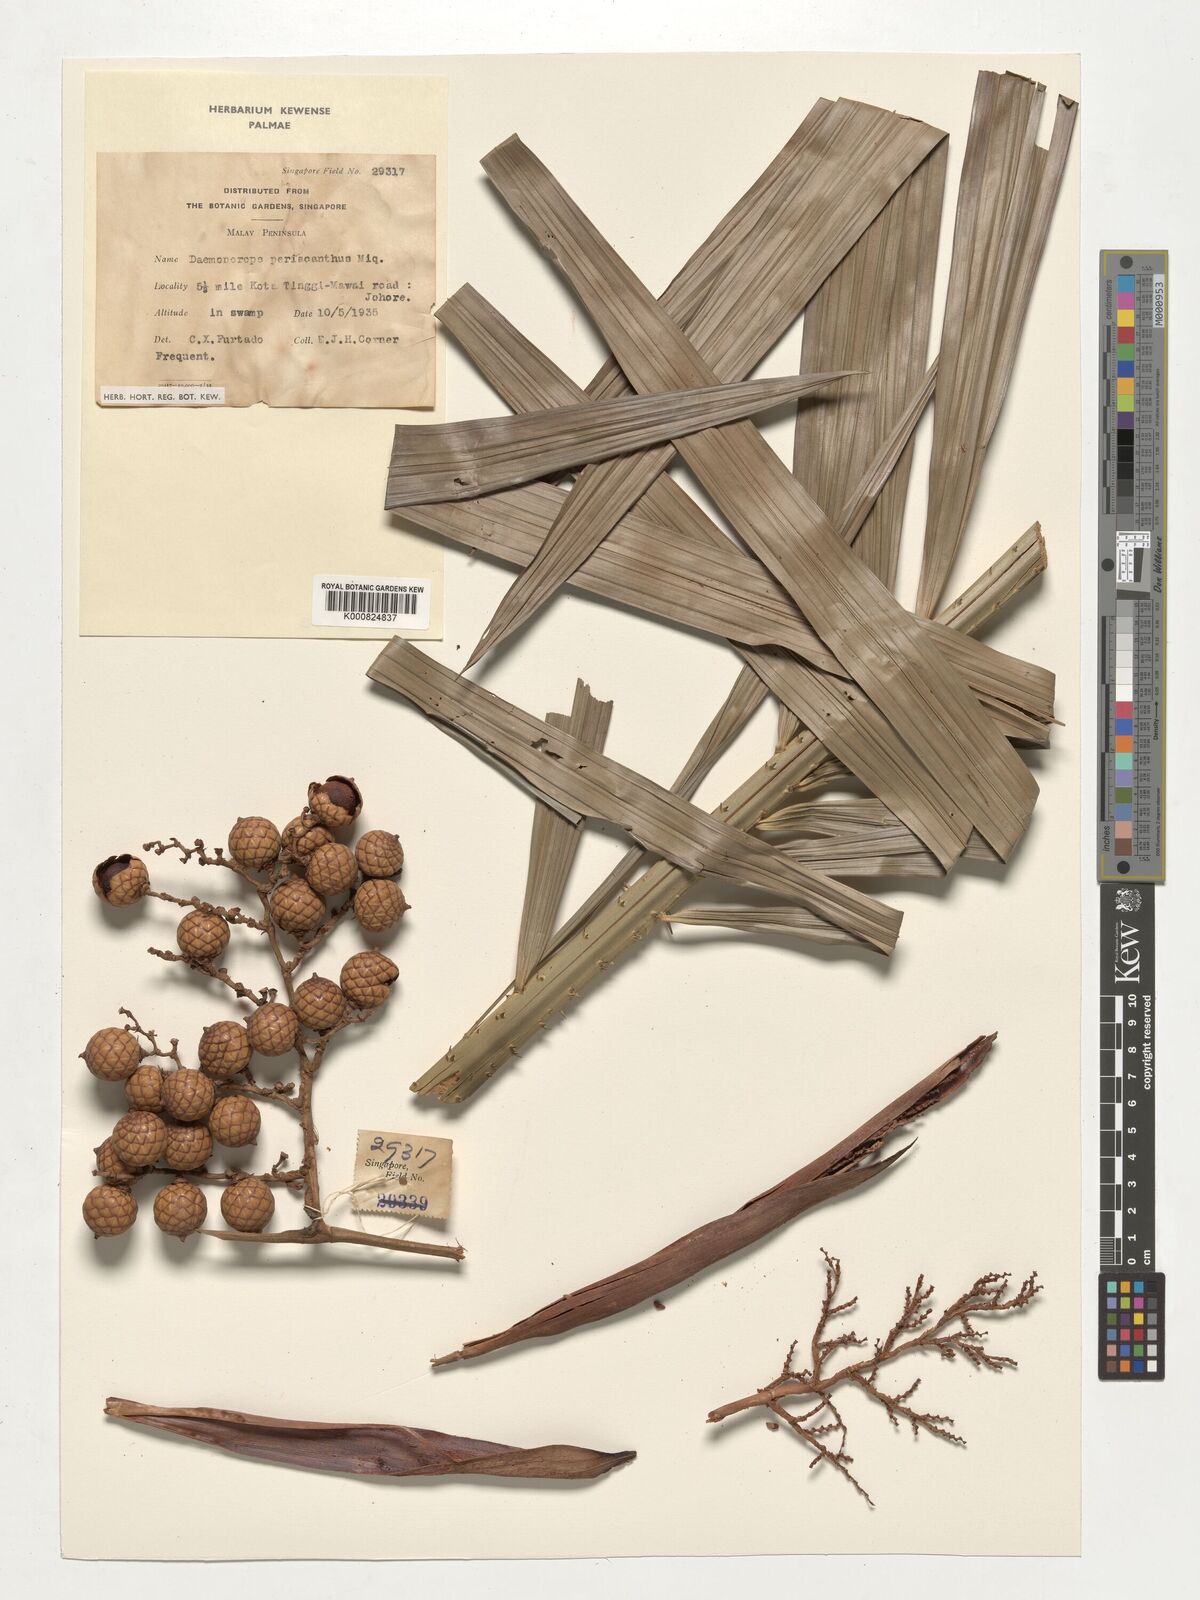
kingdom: Plantae
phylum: Tracheophyta
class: Liliopsida
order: Arecales
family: Arecaceae
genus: Calamus
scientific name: Calamus periacanthus
